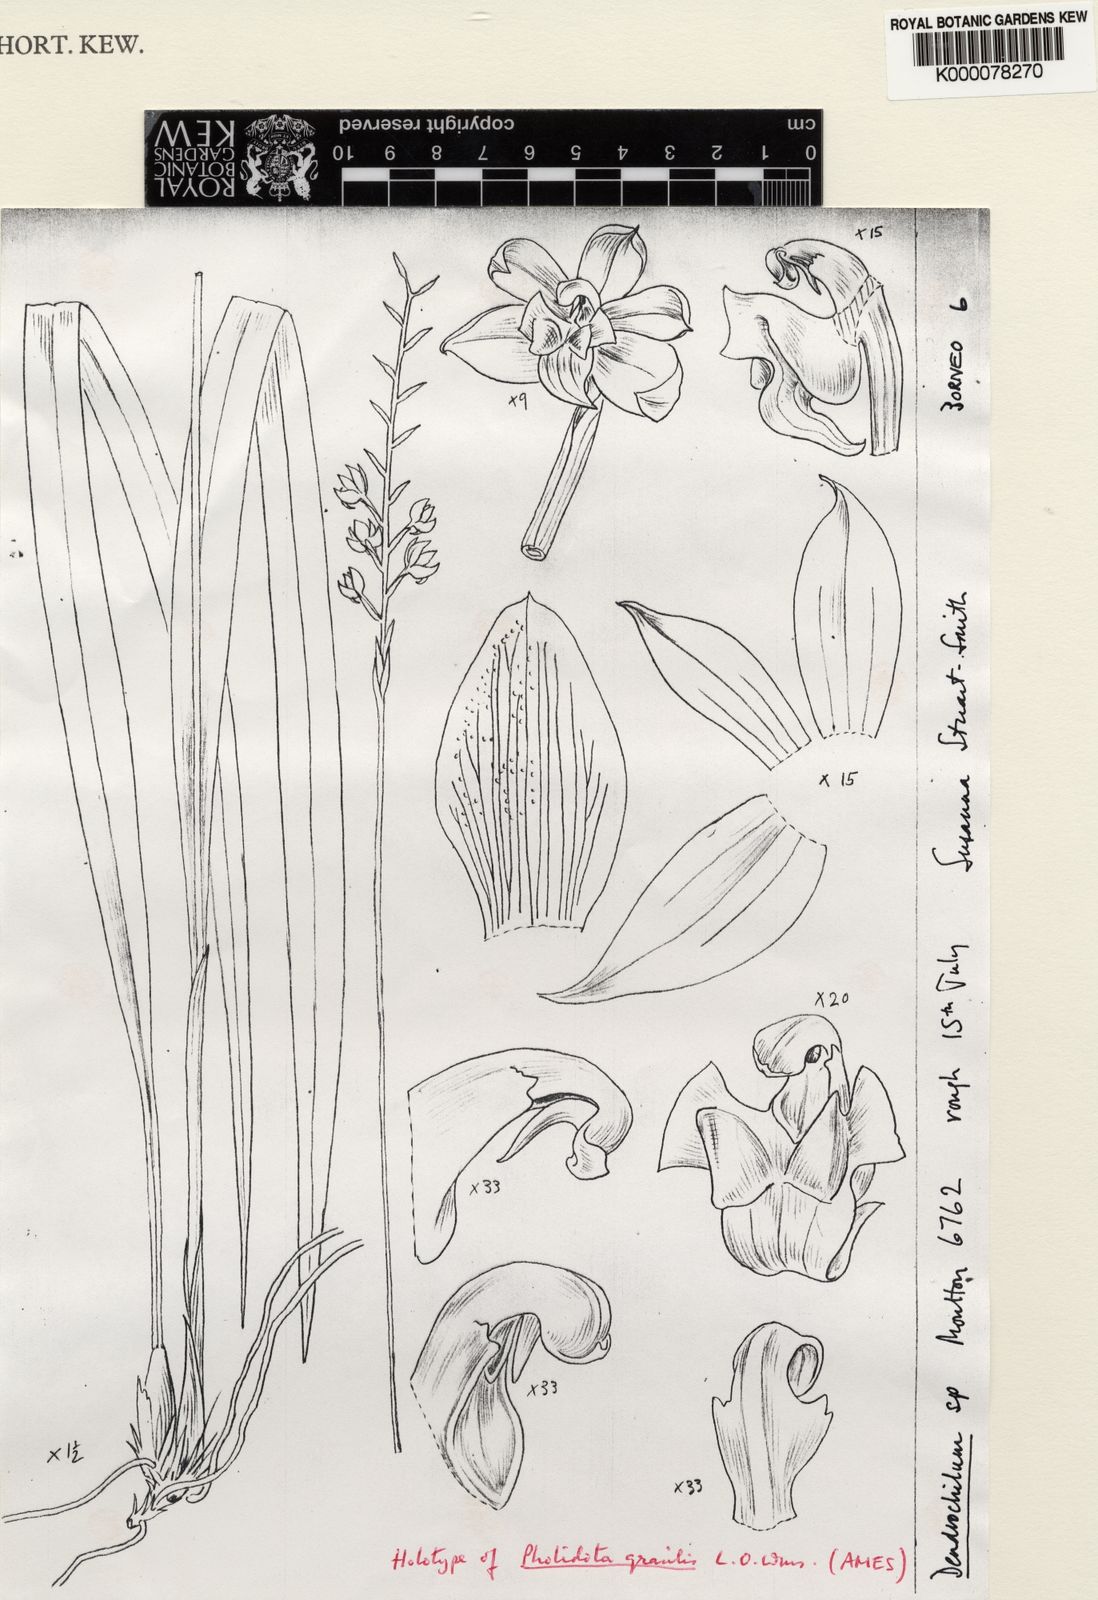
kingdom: Plantae
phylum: Tracheophyta
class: Liliopsida
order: Asparagales
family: Orchidaceae
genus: Coelogyne
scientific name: Coelogyne saccata
